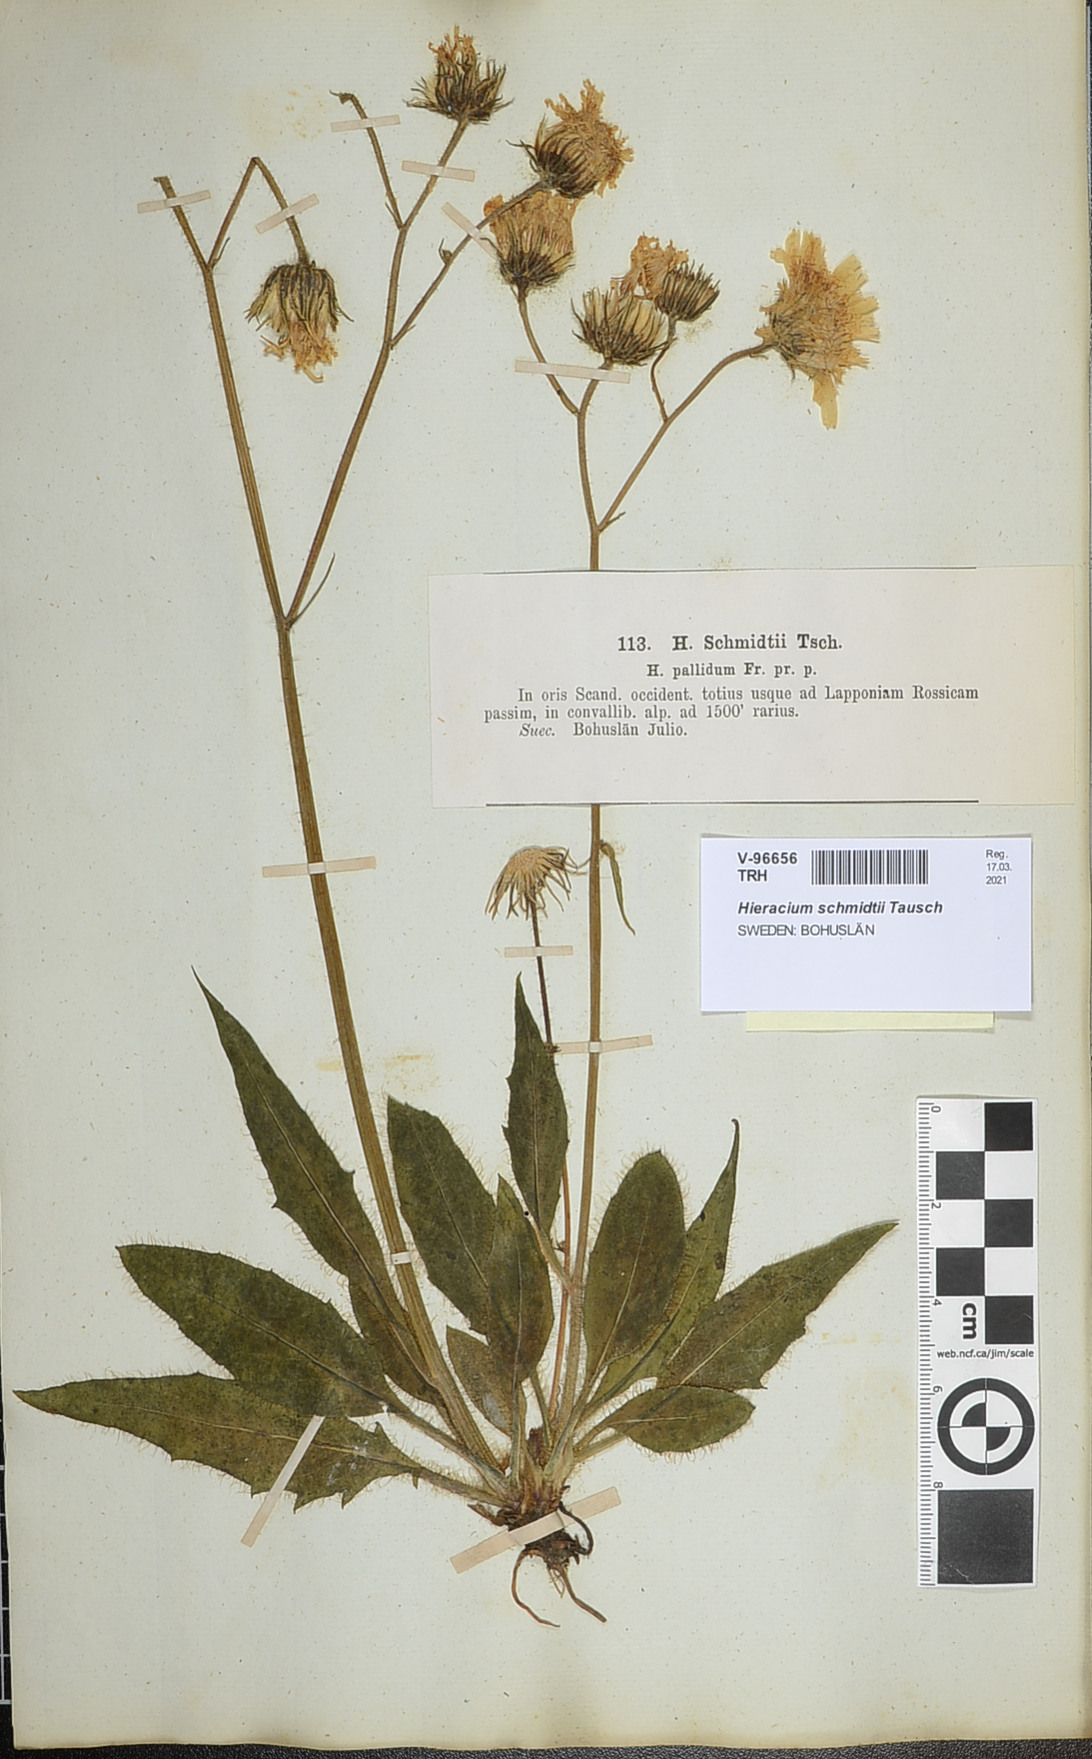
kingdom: Plantae
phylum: Tracheophyta
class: Magnoliopsida
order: Asterales
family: Asteraceae
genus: Hieracium
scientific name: Hieracium schmidtii
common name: Schmidt's hawkweed
